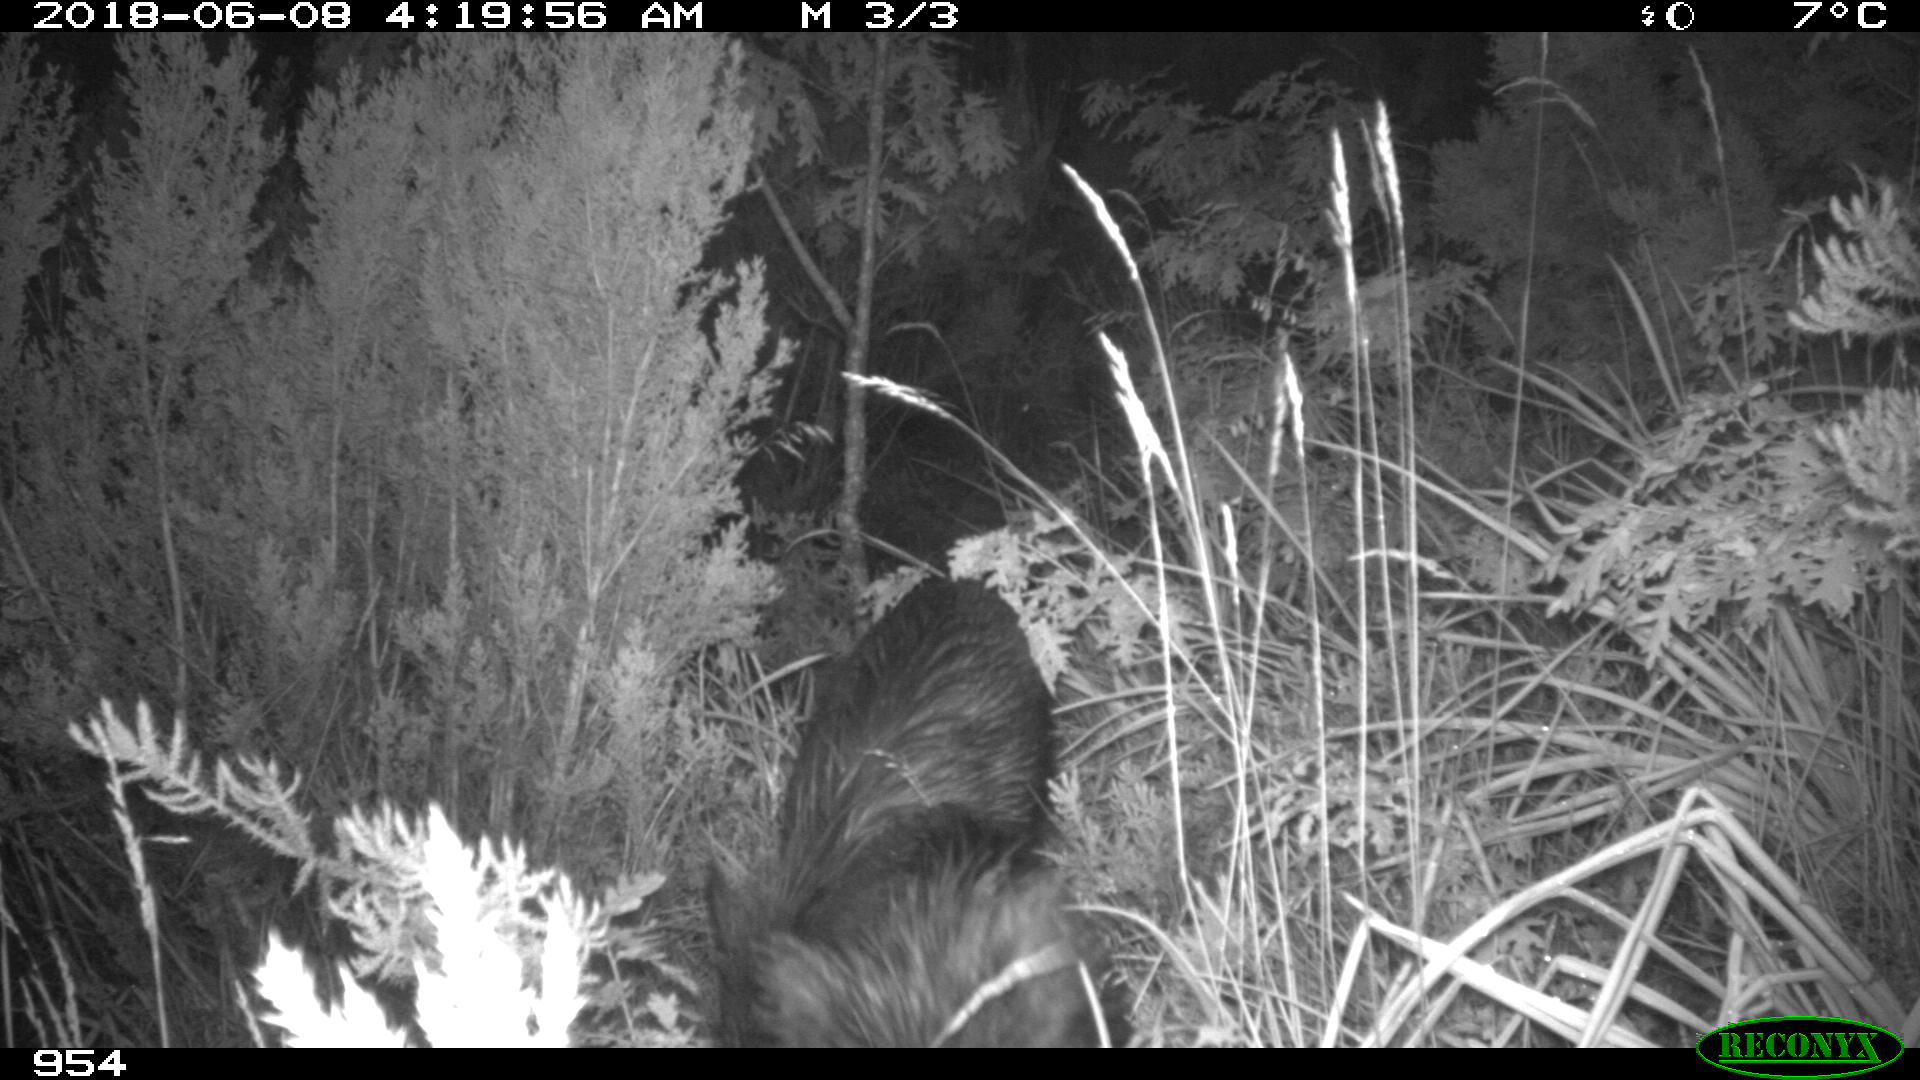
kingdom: Animalia
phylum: Chordata
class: Mammalia
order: Artiodactyla
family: Suidae
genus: Sus
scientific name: Sus scrofa
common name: Wild boar
